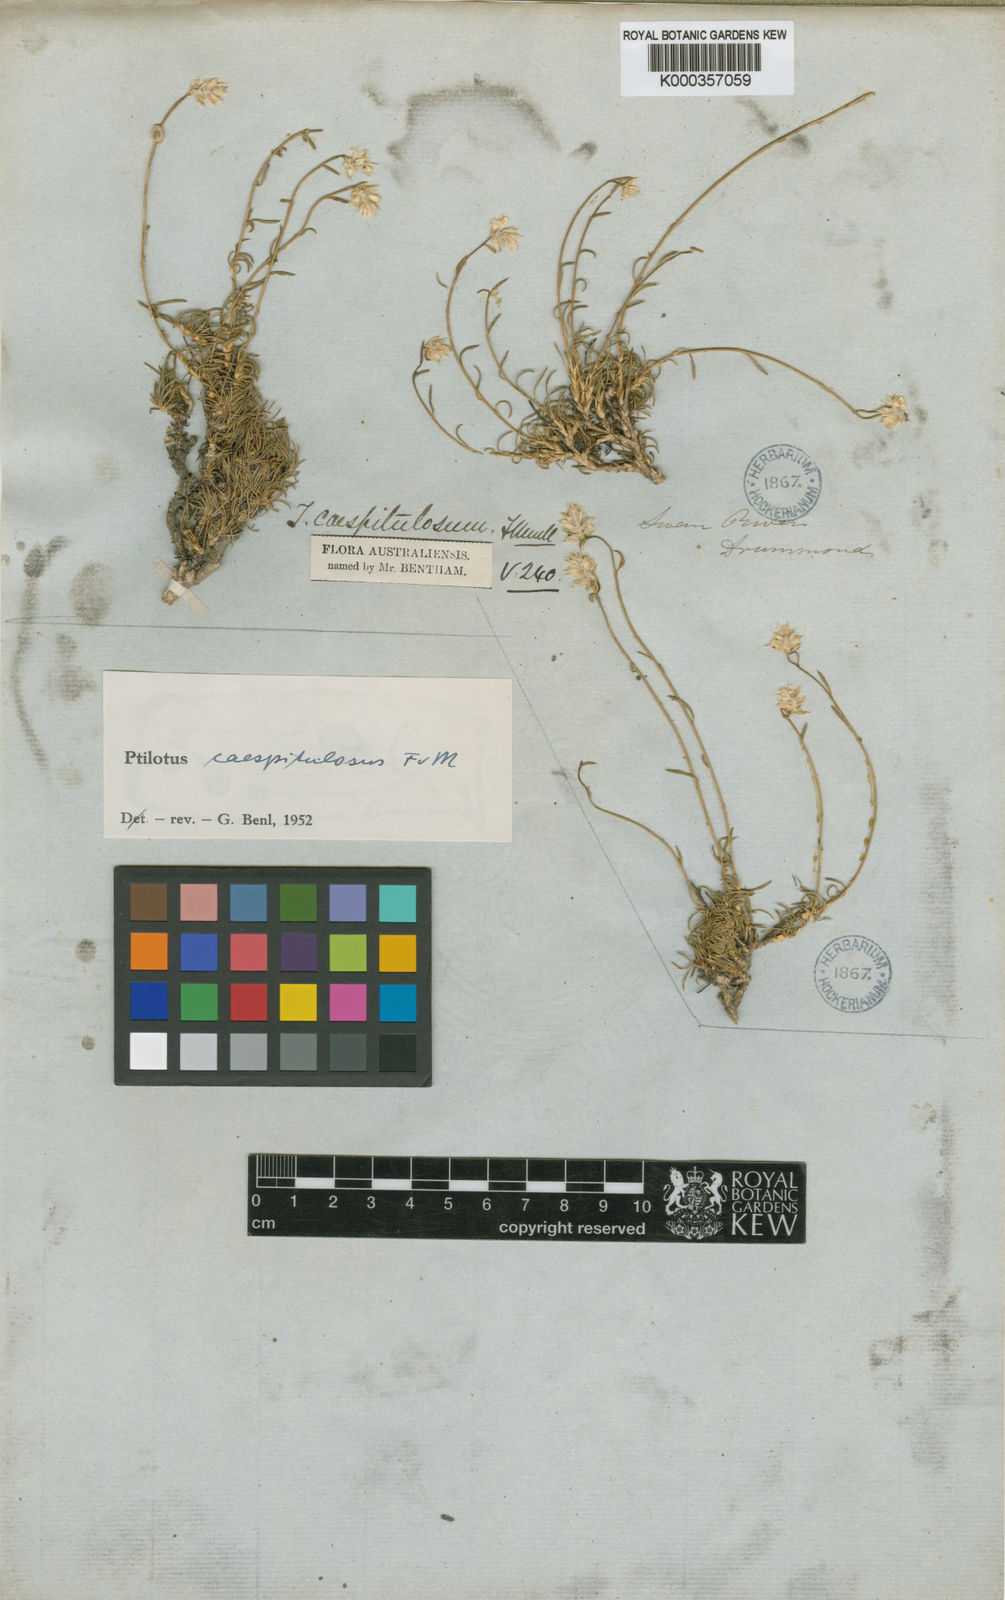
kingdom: Plantae
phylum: Tracheophyta
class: Magnoliopsida
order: Caryophyllales
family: Amaranthaceae
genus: Ptilotus
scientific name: Ptilotus caespitulosus
